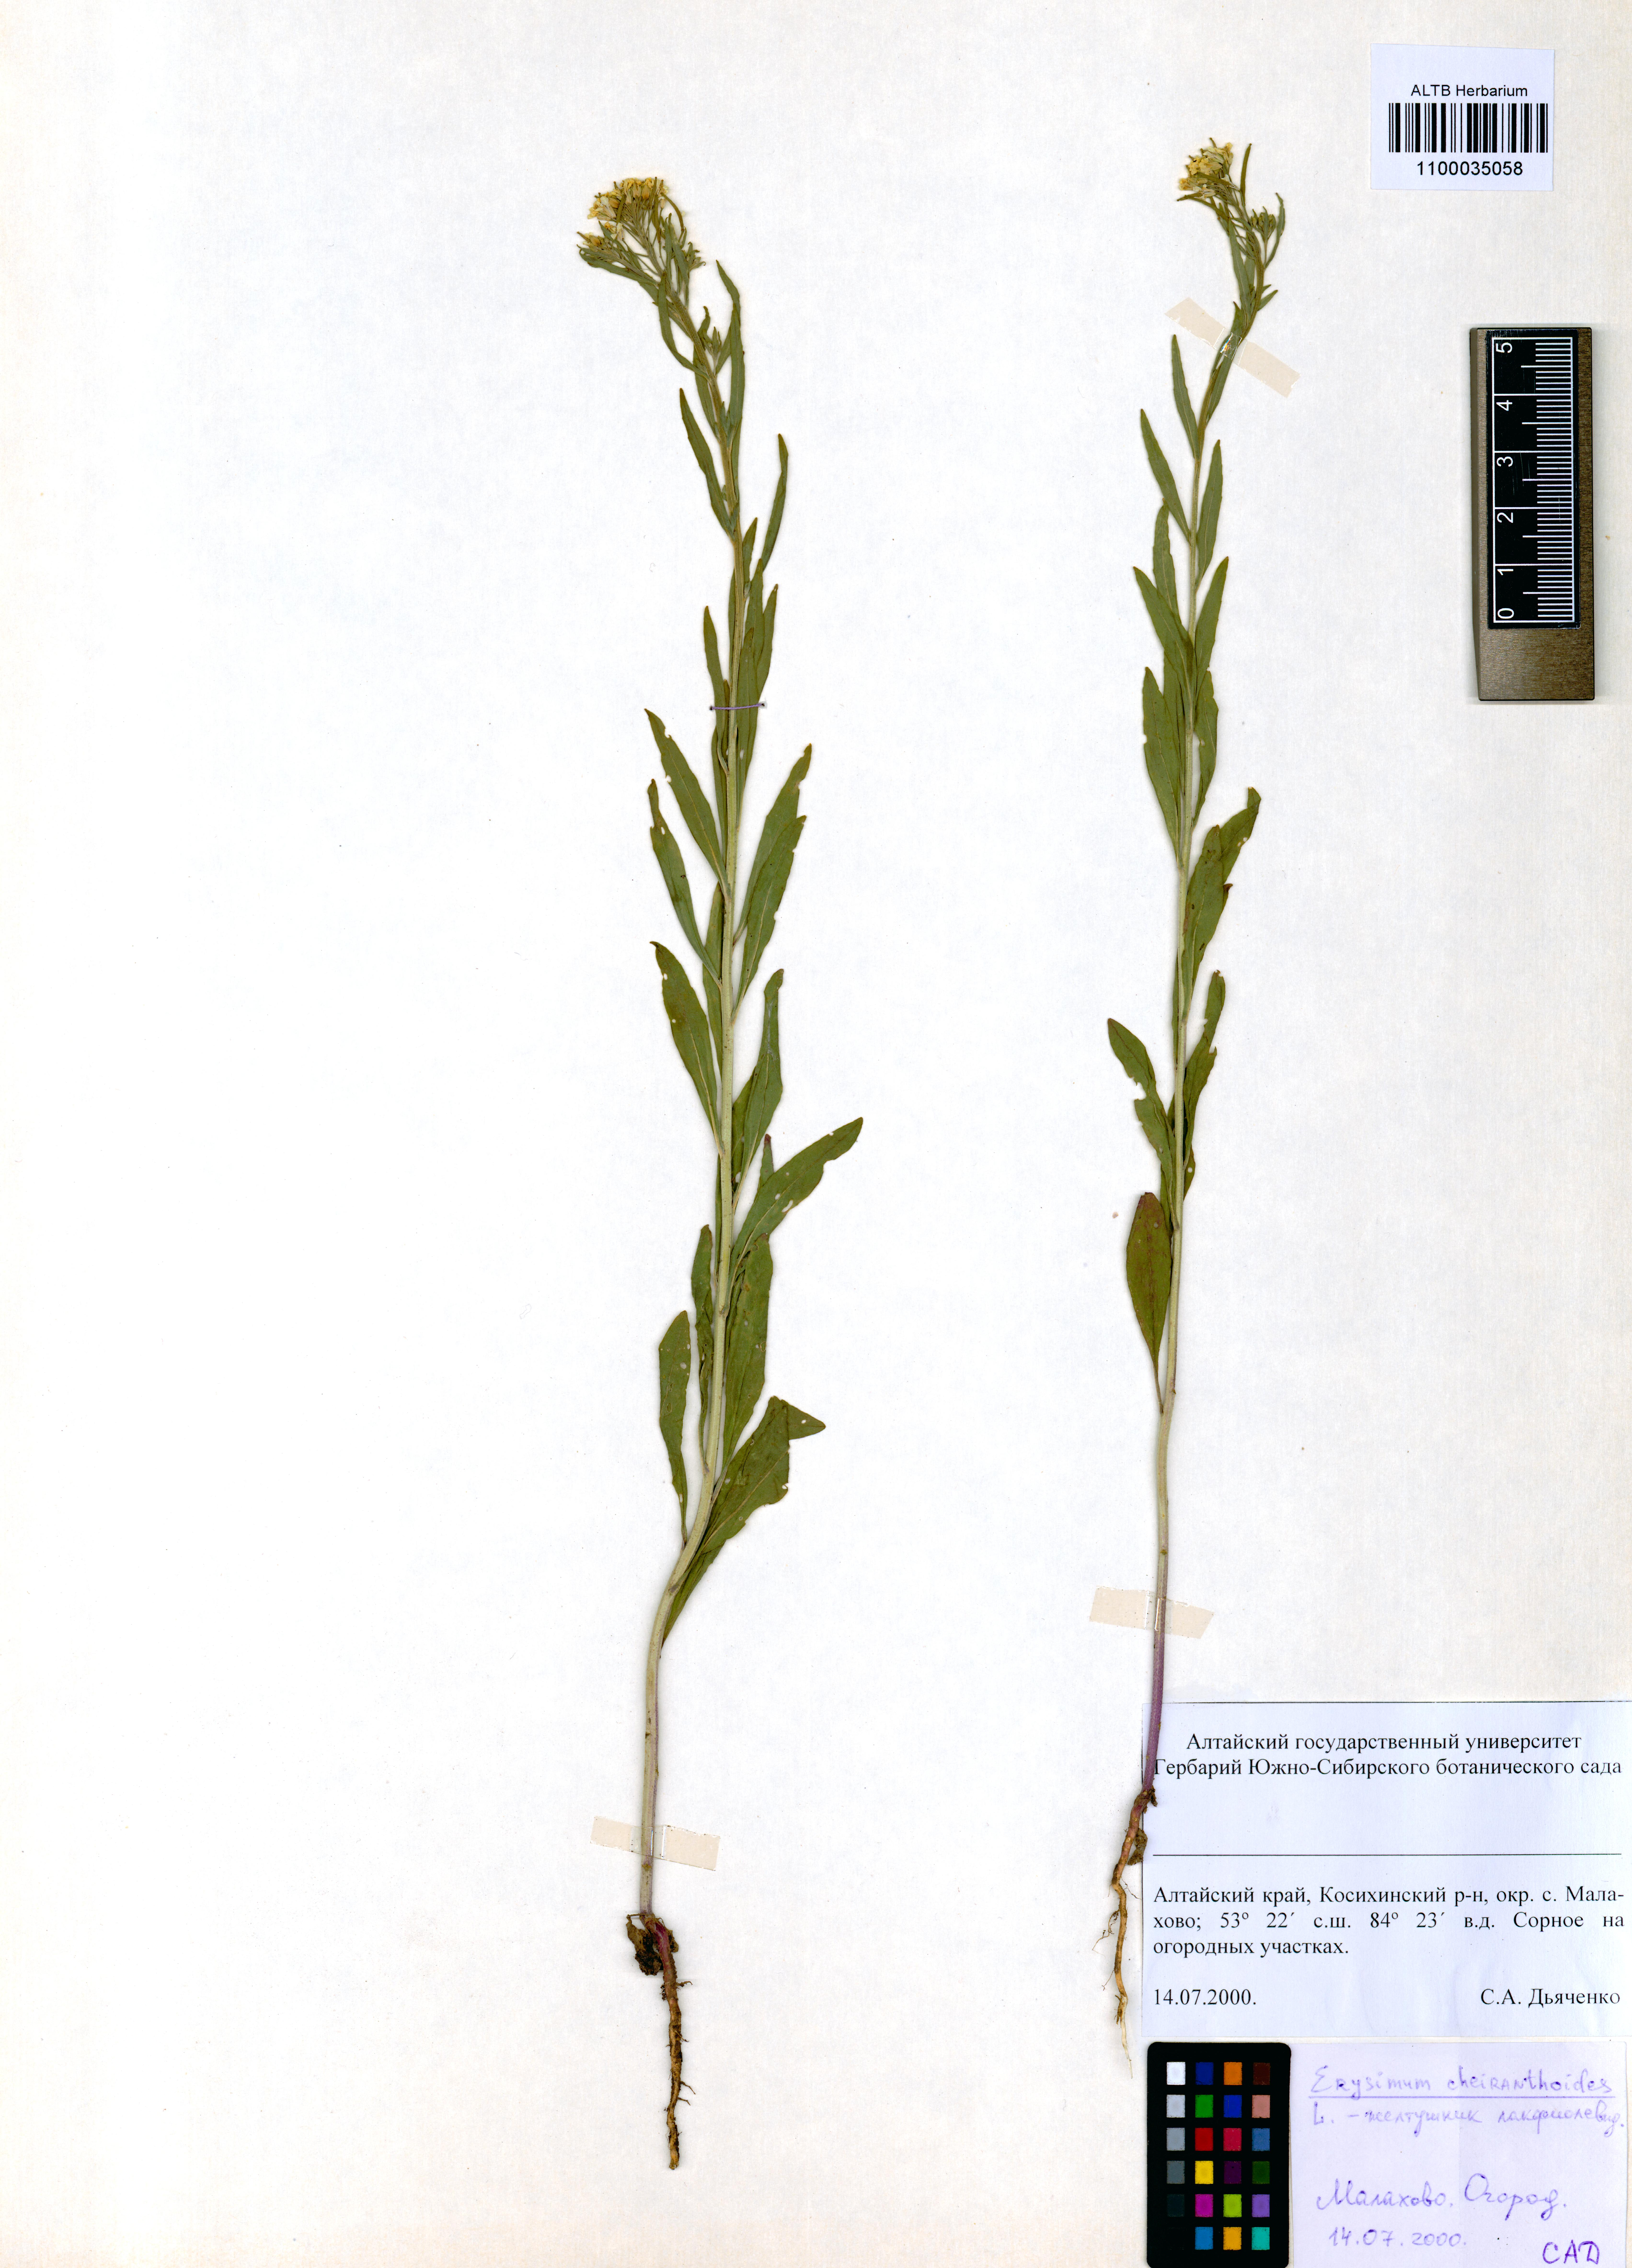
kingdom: Plantae
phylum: Tracheophyta
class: Magnoliopsida
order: Brassicales
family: Brassicaceae
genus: Erysimum
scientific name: Erysimum cheiranthoides
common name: Treacle mustard
